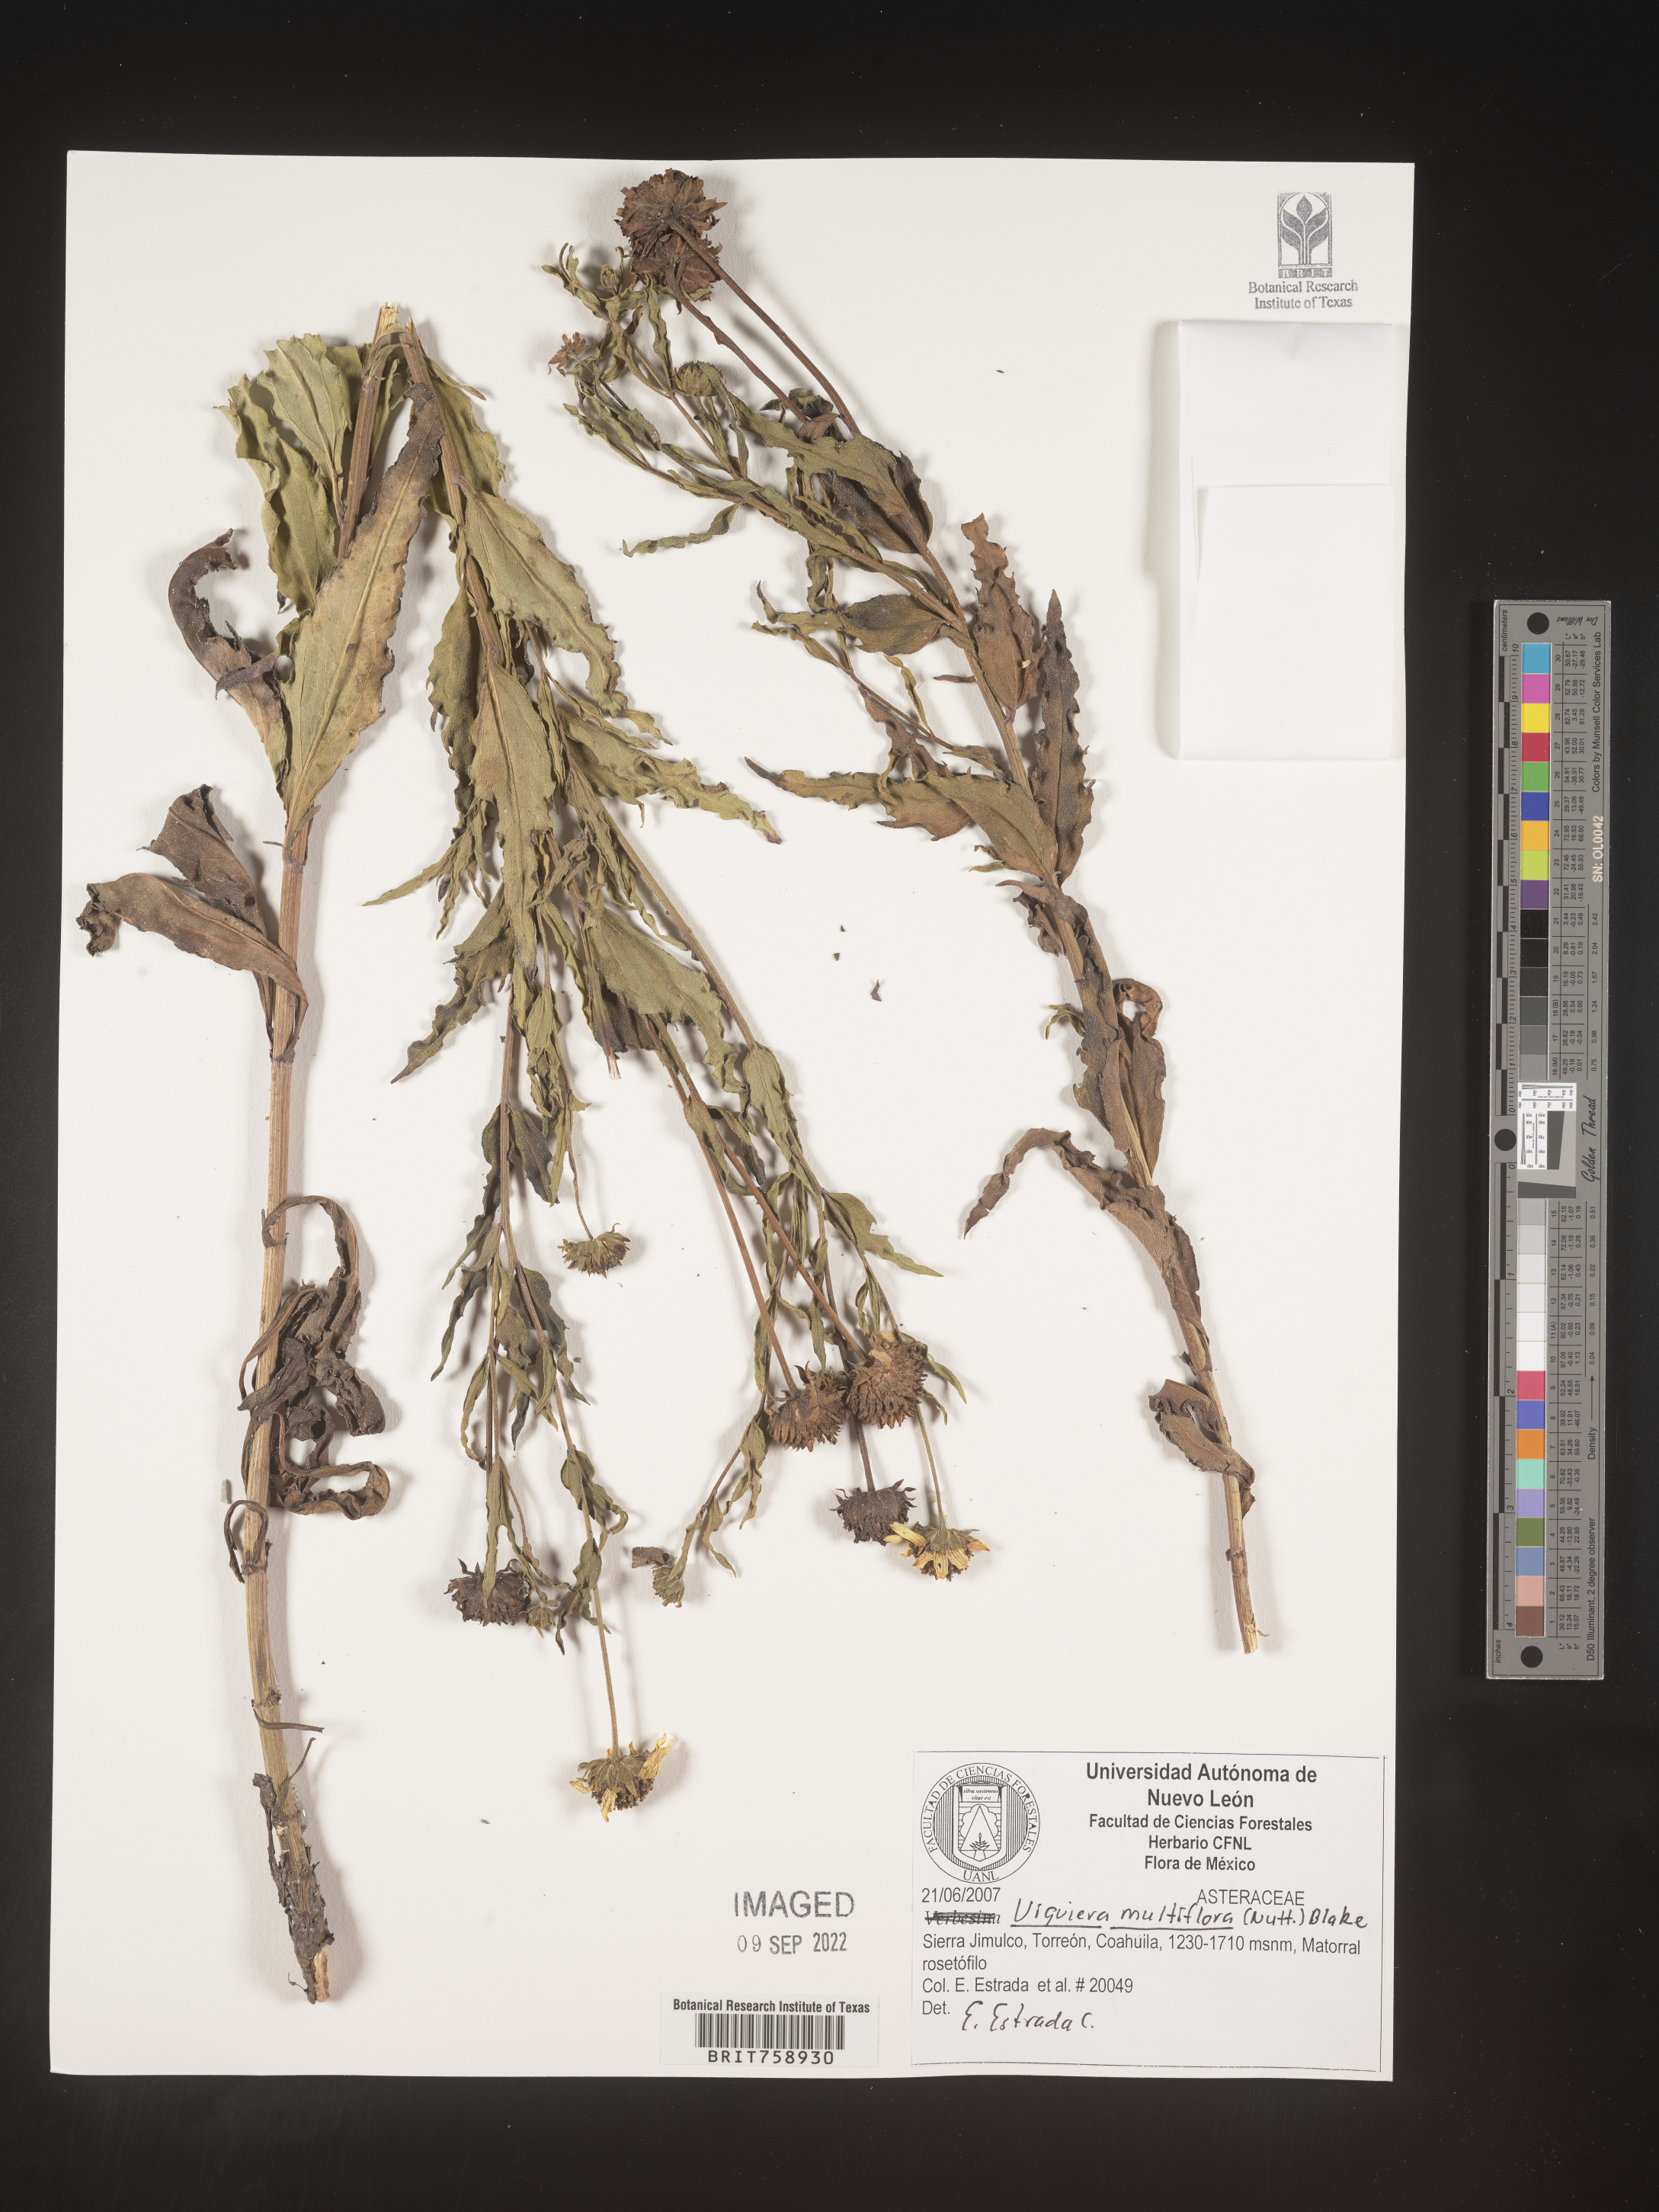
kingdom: Plantae
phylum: Tracheophyta
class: Magnoliopsida
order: Asterales
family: Asteraceae
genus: Viguiera
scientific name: Viguiera
